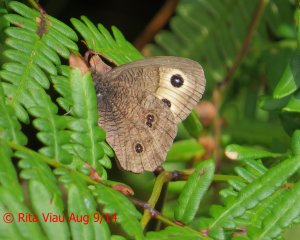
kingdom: Animalia
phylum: Arthropoda
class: Insecta
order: Lepidoptera
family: Nymphalidae
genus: Cercyonis
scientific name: Cercyonis pegala
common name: Common Wood-Nymph
